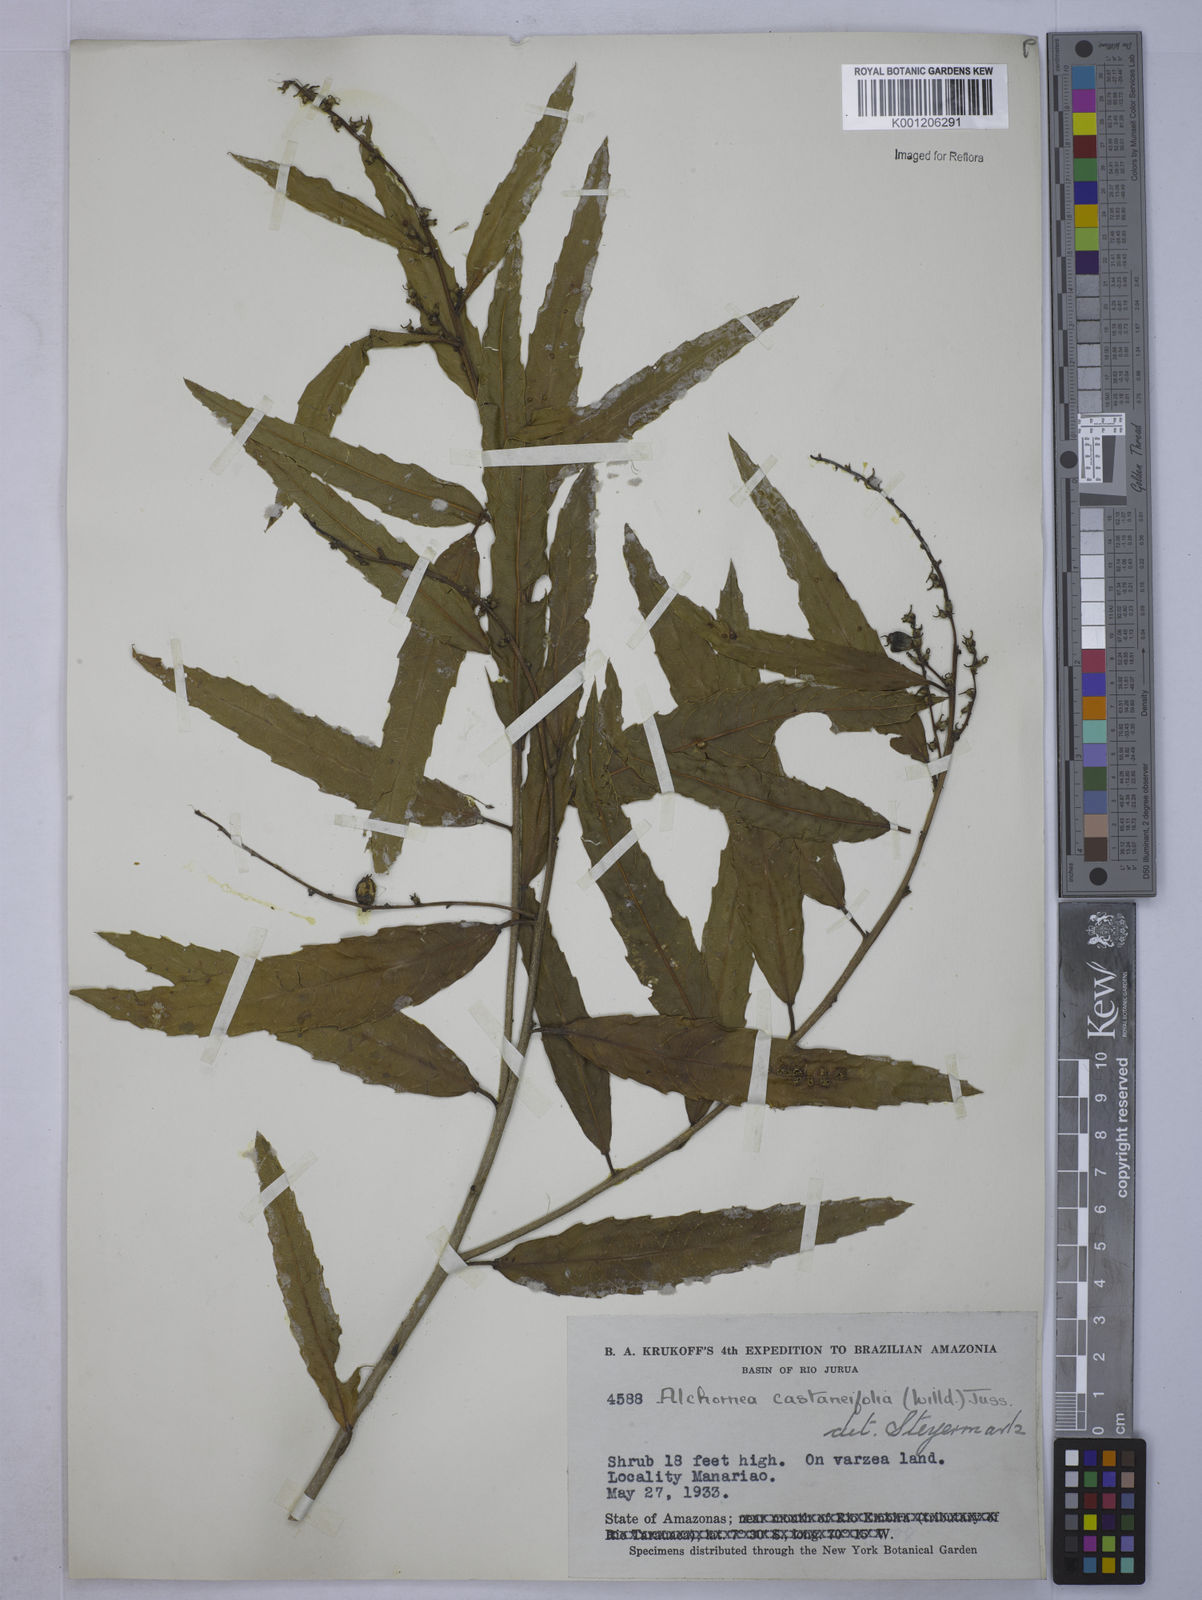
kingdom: Plantae
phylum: Tracheophyta
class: Magnoliopsida
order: Malpighiales
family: Euphorbiaceae
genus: Alchornea
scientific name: Alchornea castaneifolia
